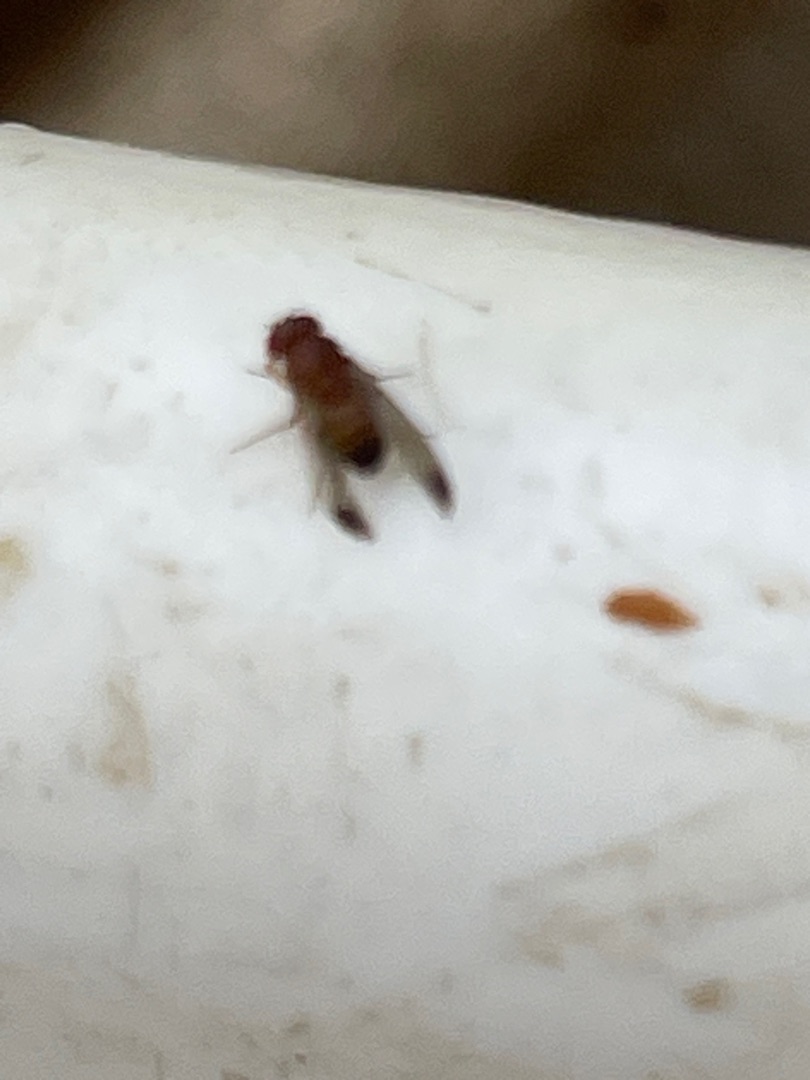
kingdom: Animalia
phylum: Arthropoda
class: Insecta
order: Diptera
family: Drosophilidae
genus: Drosophila
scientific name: Drosophila suzukii
